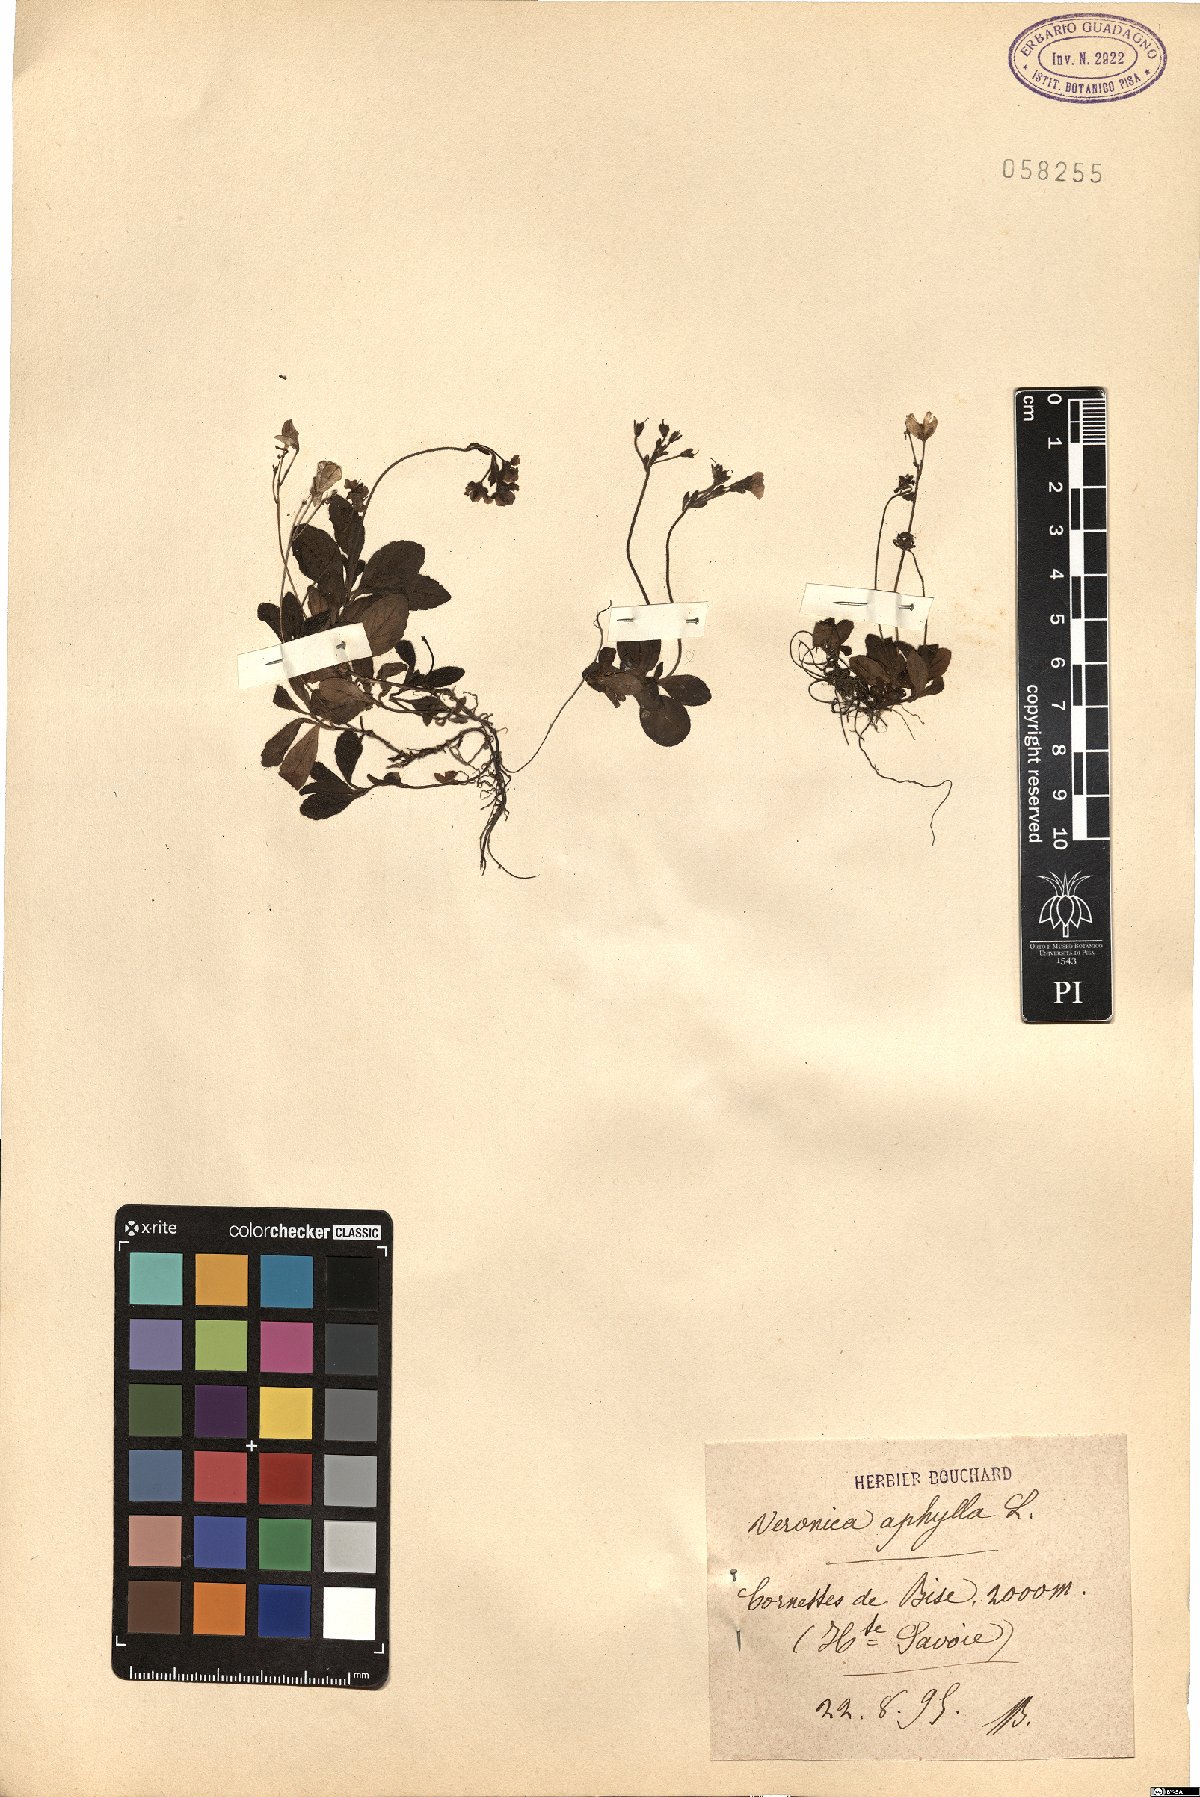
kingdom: Plantae
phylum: Tracheophyta
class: Magnoliopsida
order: Lamiales
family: Plantaginaceae
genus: Veronica
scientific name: Veronica aphylla
